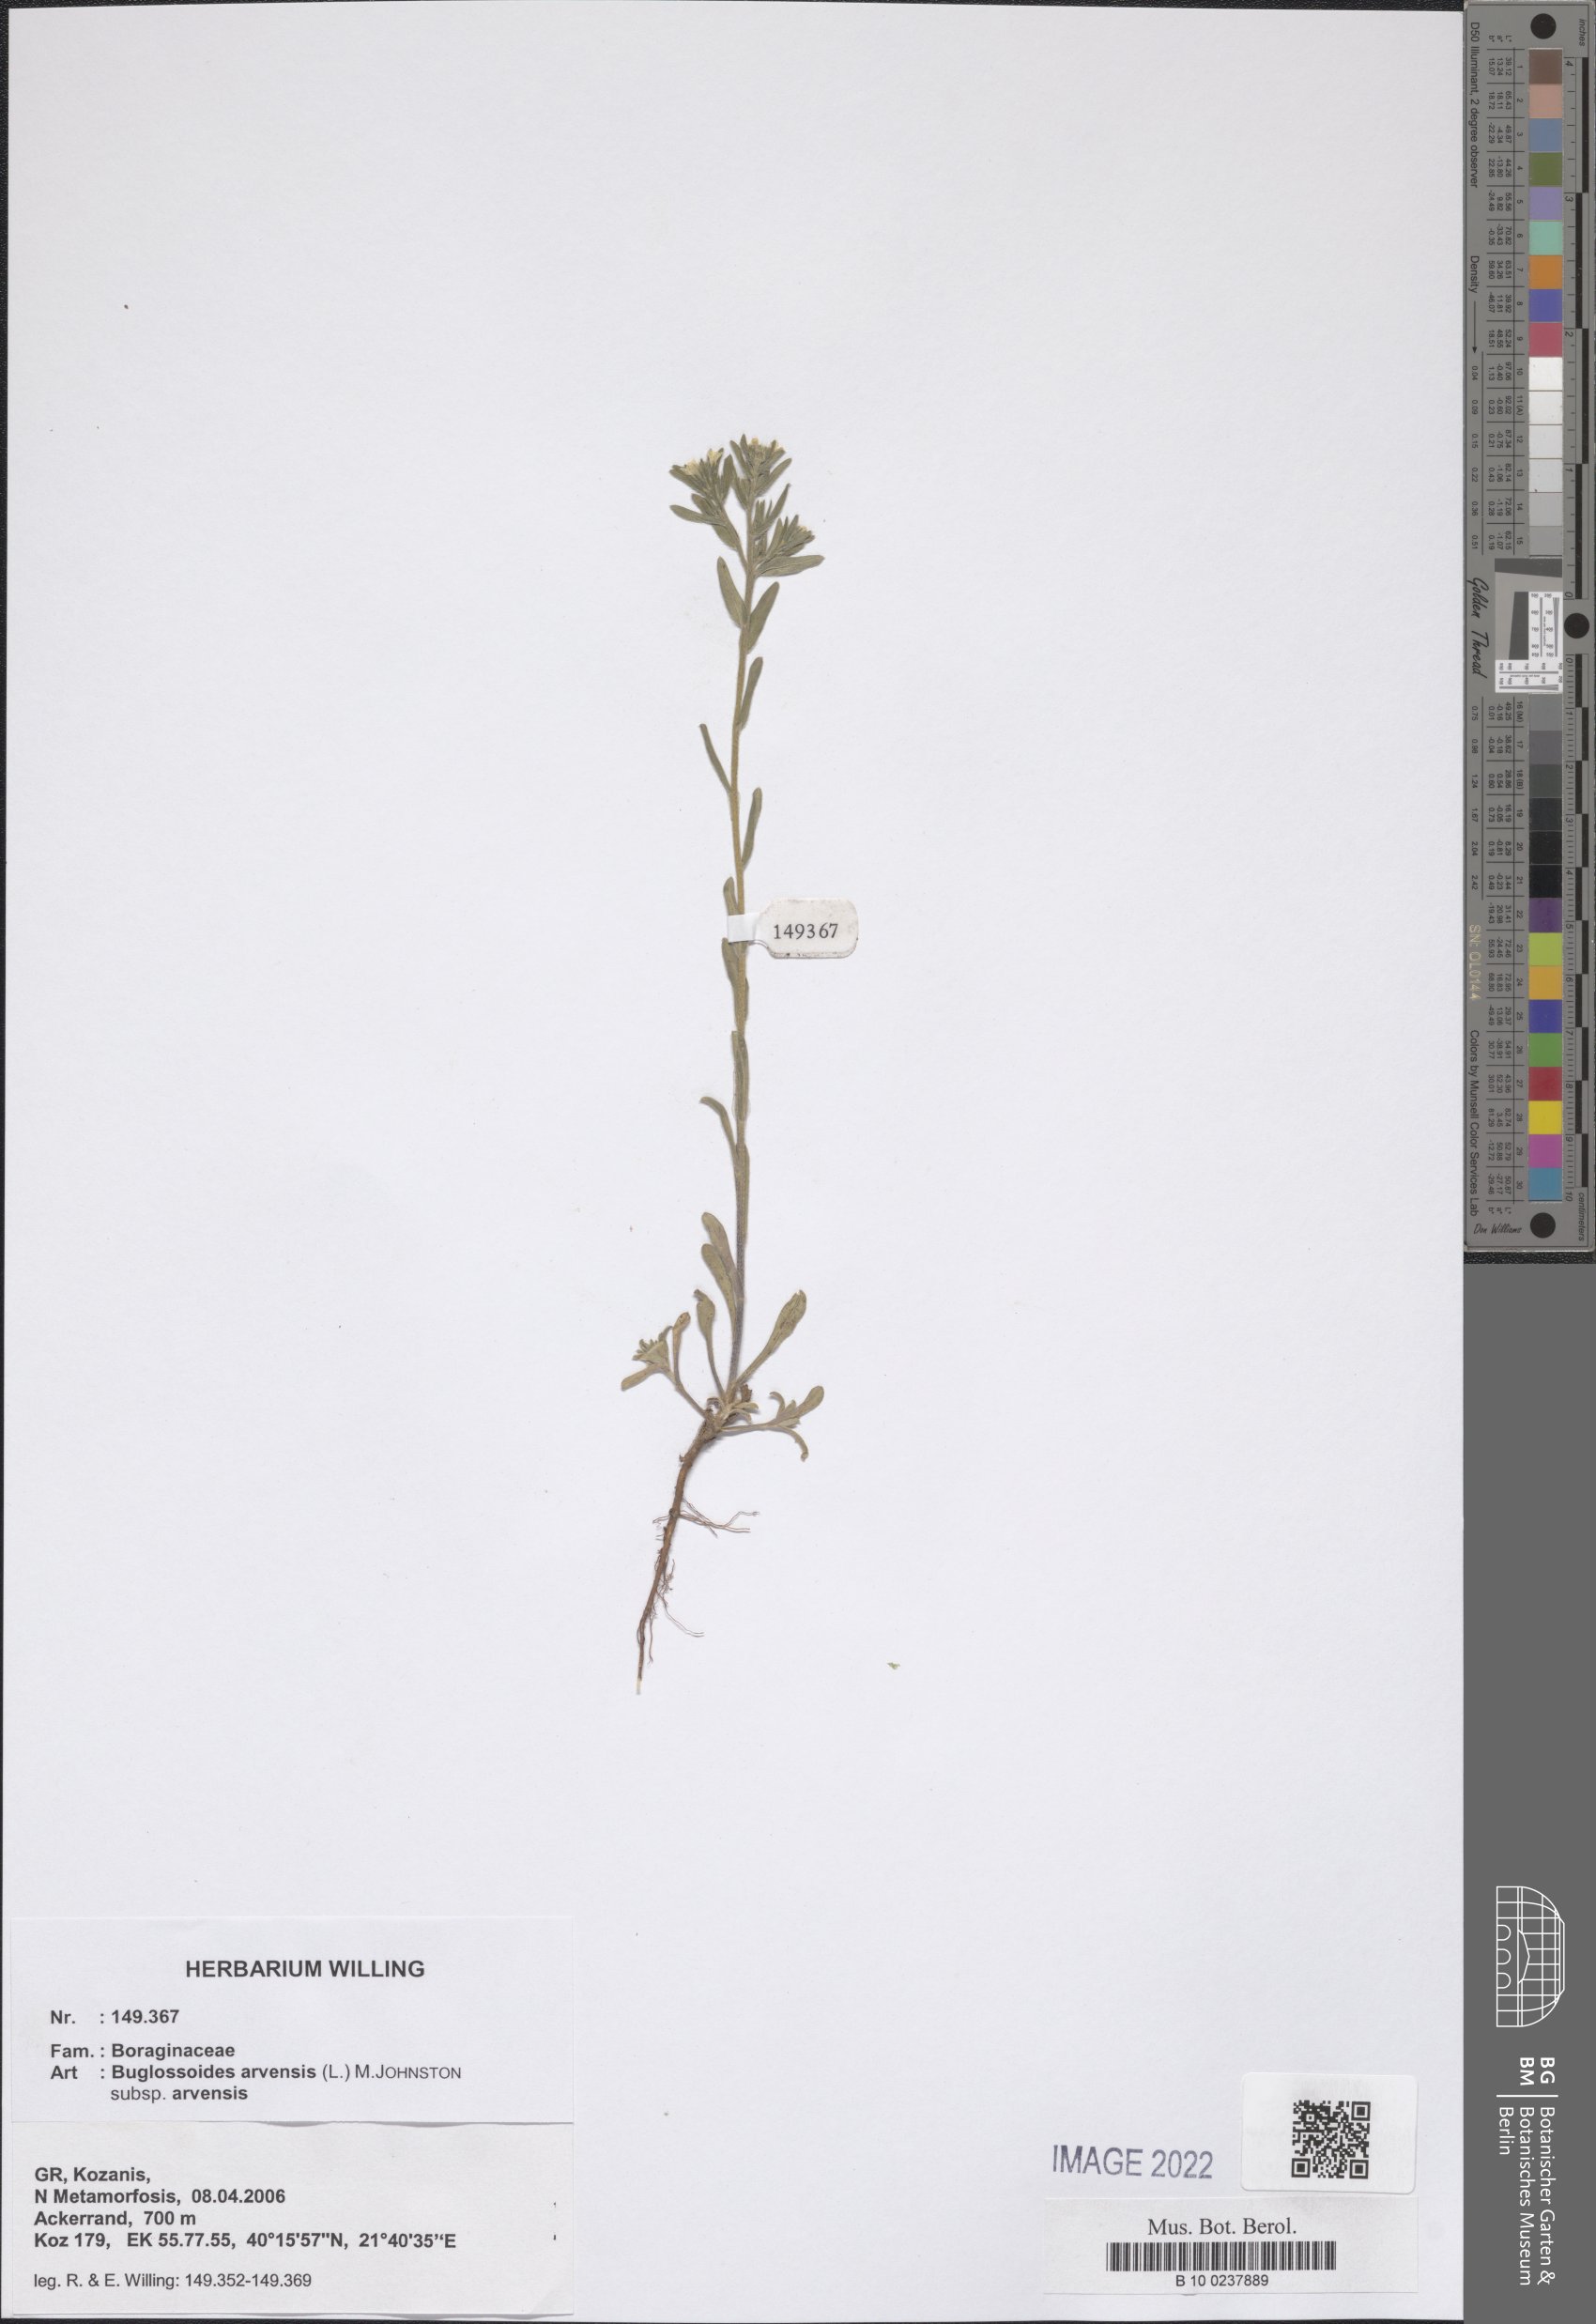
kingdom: Plantae
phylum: Tracheophyta
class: Magnoliopsida
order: Boraginales
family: Boraginaceae
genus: Buglossoides
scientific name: Buglossoides arvensis
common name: Corn gromwell
